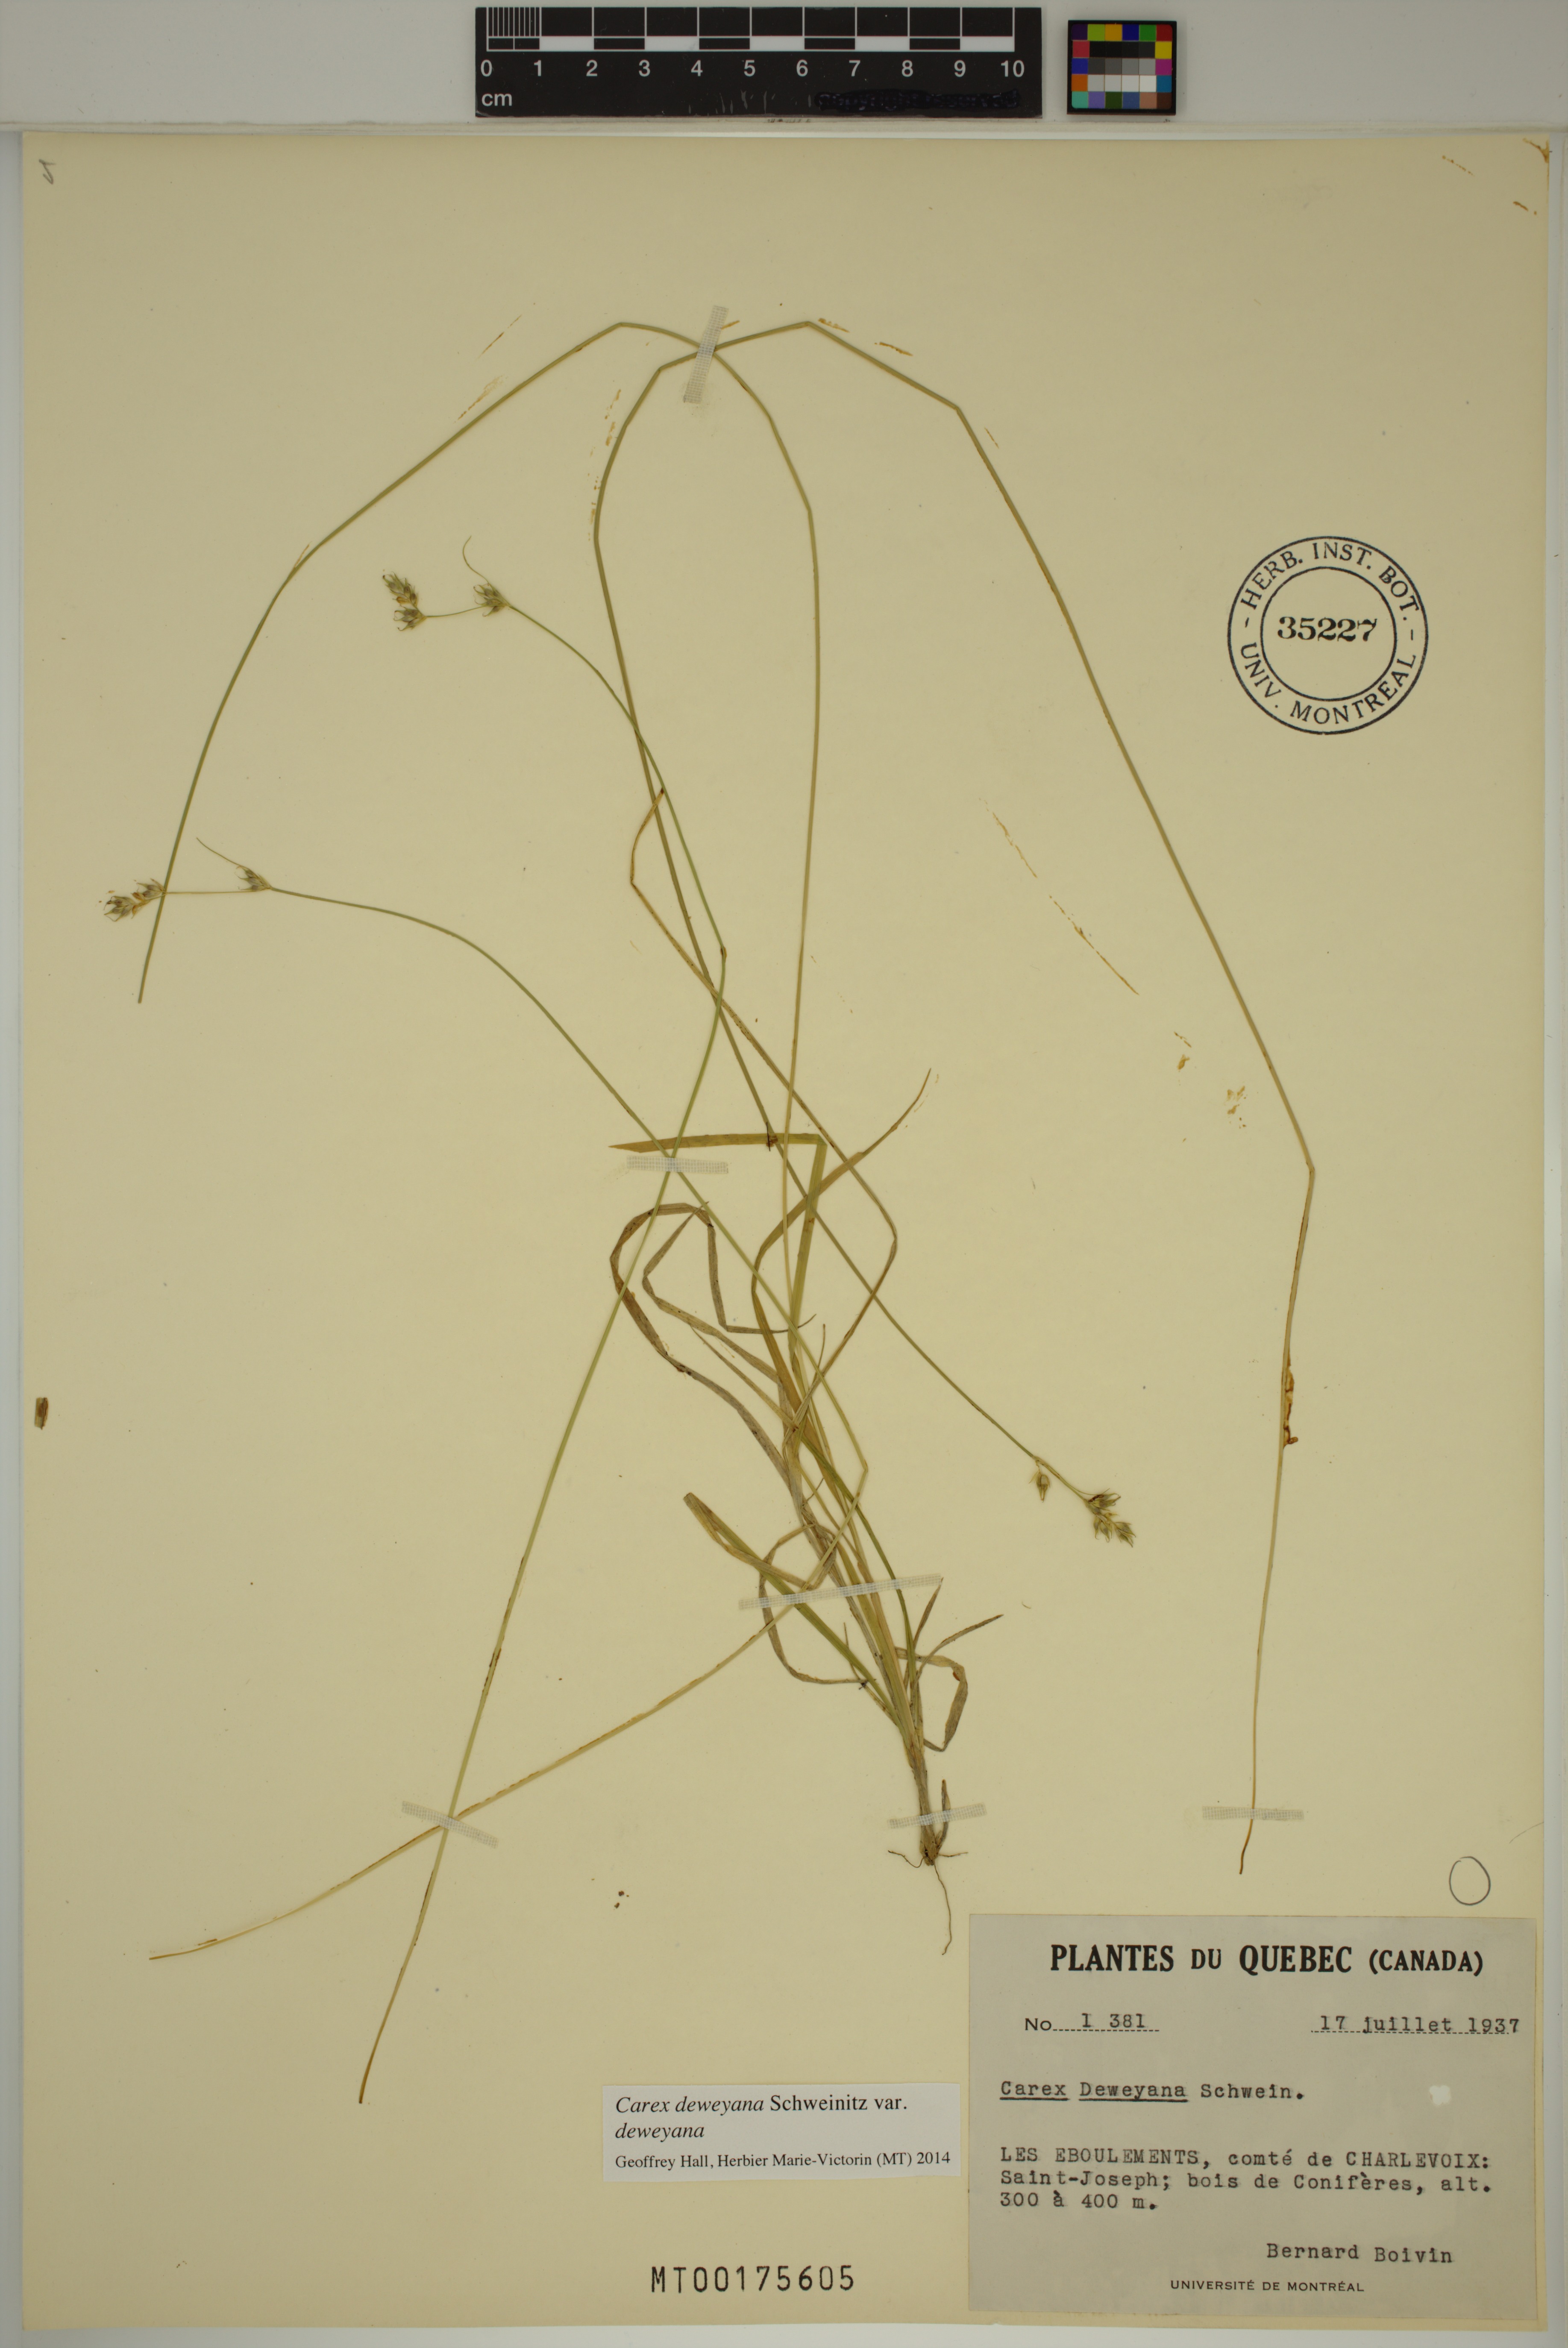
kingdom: Plantae
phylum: Tracheophyta
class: Liliopsida
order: Poales
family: Cyperaceae
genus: Carex
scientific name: Carex deweyana
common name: Dewey's sedge
